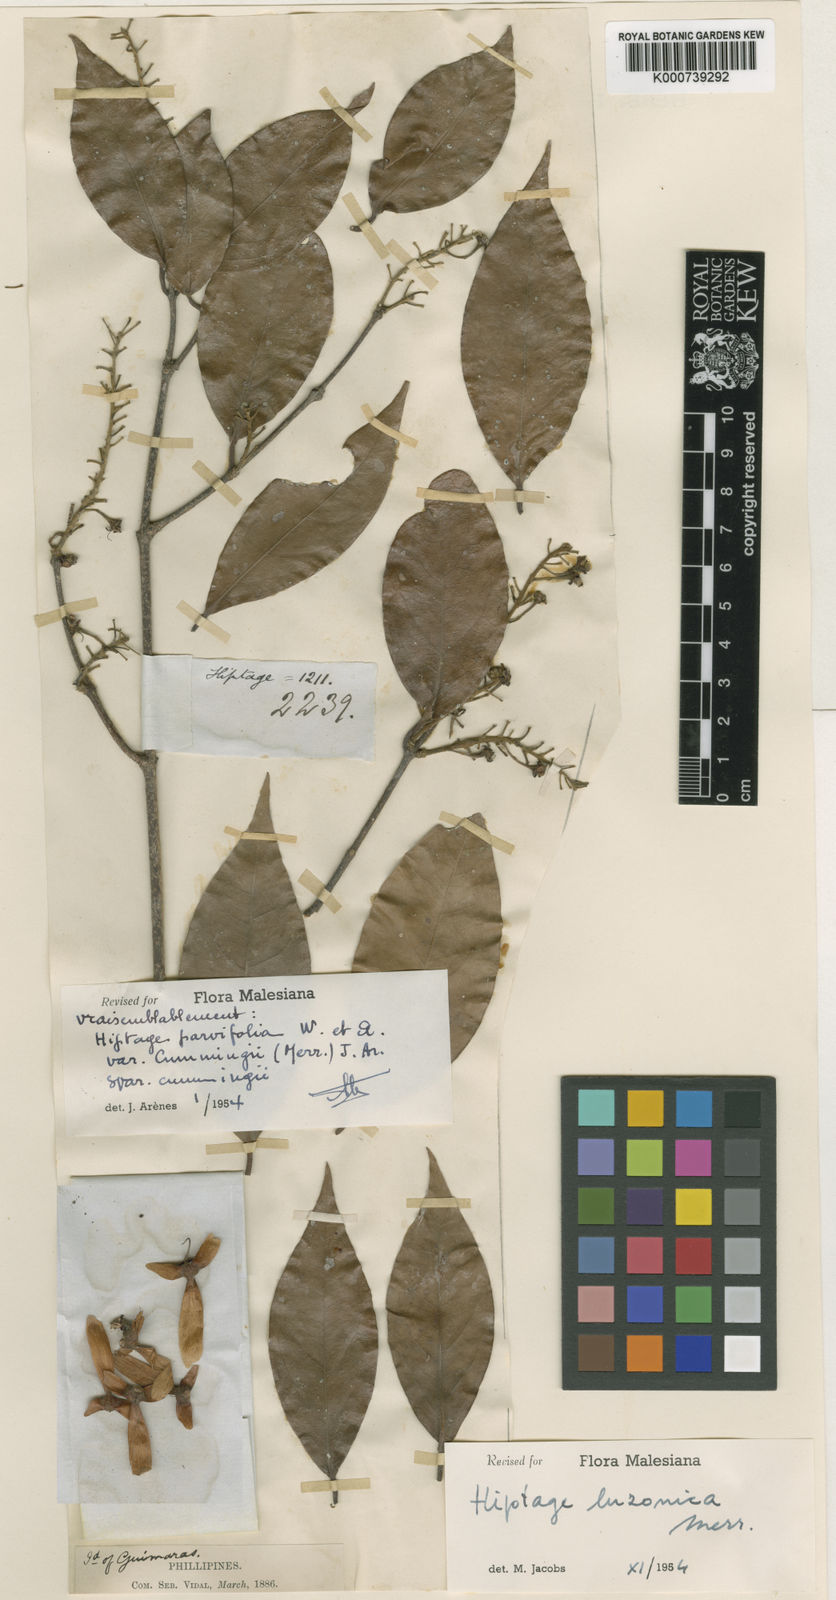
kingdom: Plantae
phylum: Tracheophyta
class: Magnoliopsida
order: Malpighiales
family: Malpighiaceae
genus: Hiptage
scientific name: Hiptage luzonica
